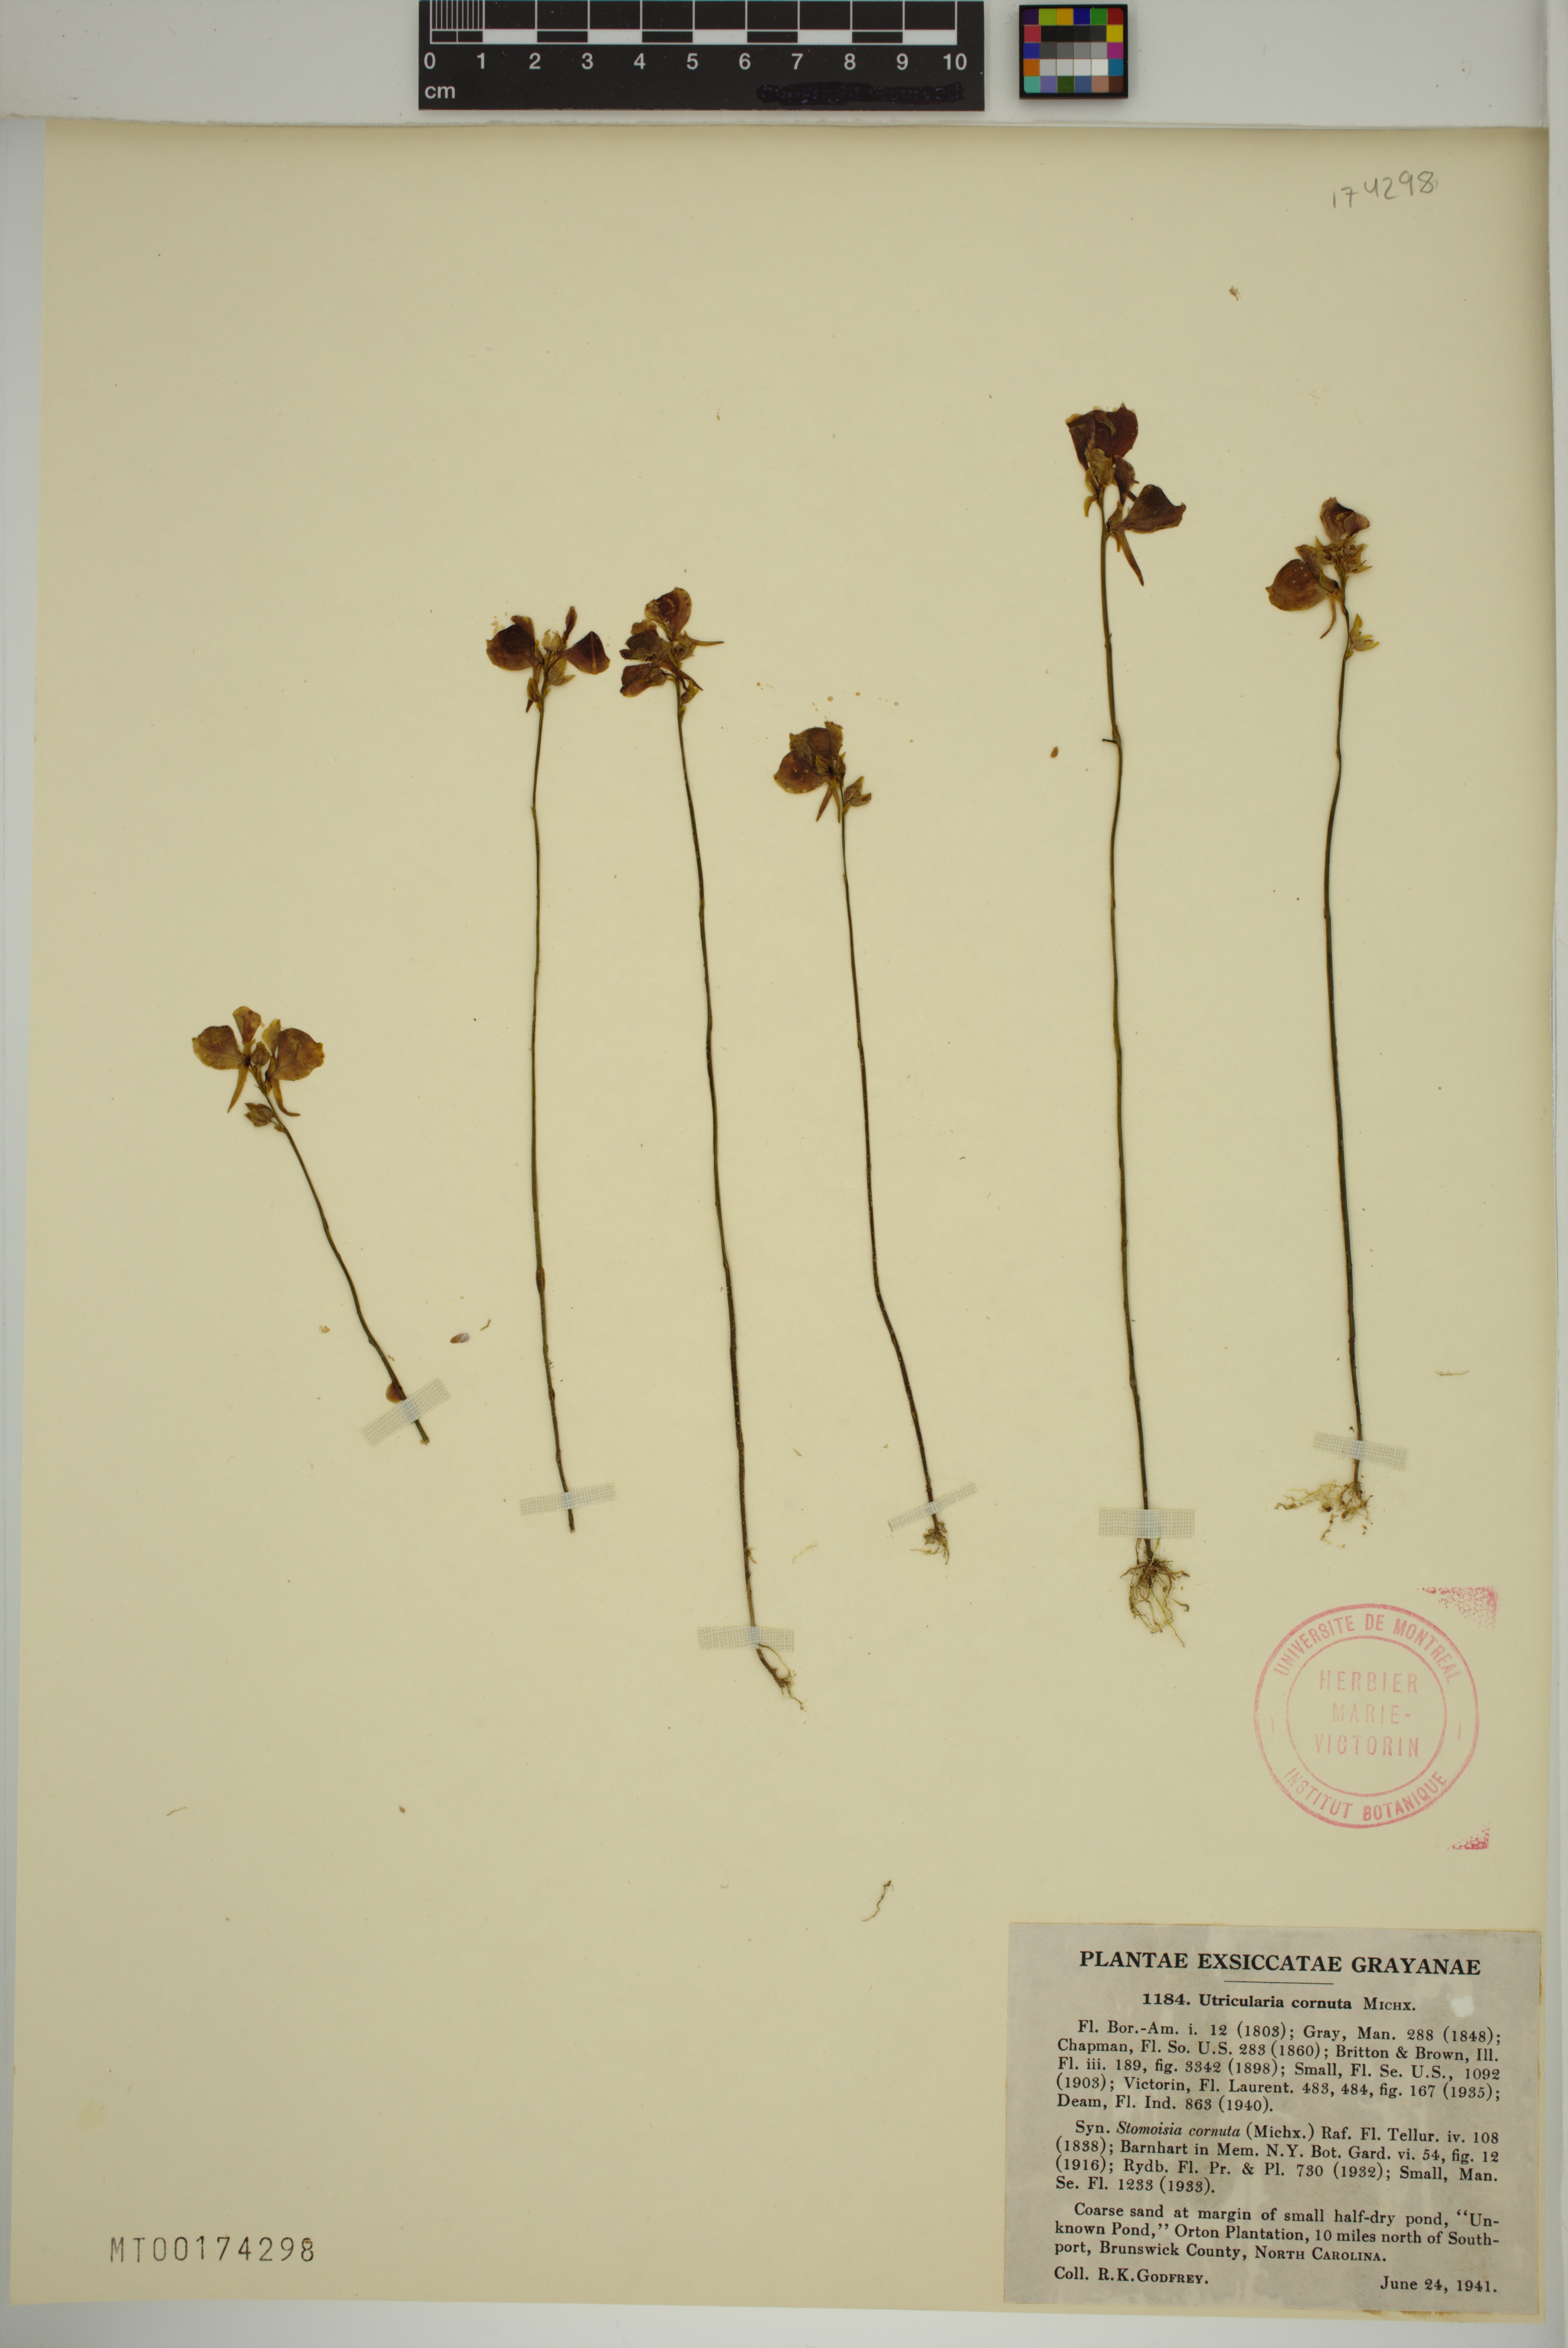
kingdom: Plantae
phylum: Tracheophyta
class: Magnoliopsida
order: Lamiales
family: Lentibulariaceae
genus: Utricularia
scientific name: Utricularia cornuta
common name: Horned bladderwort
